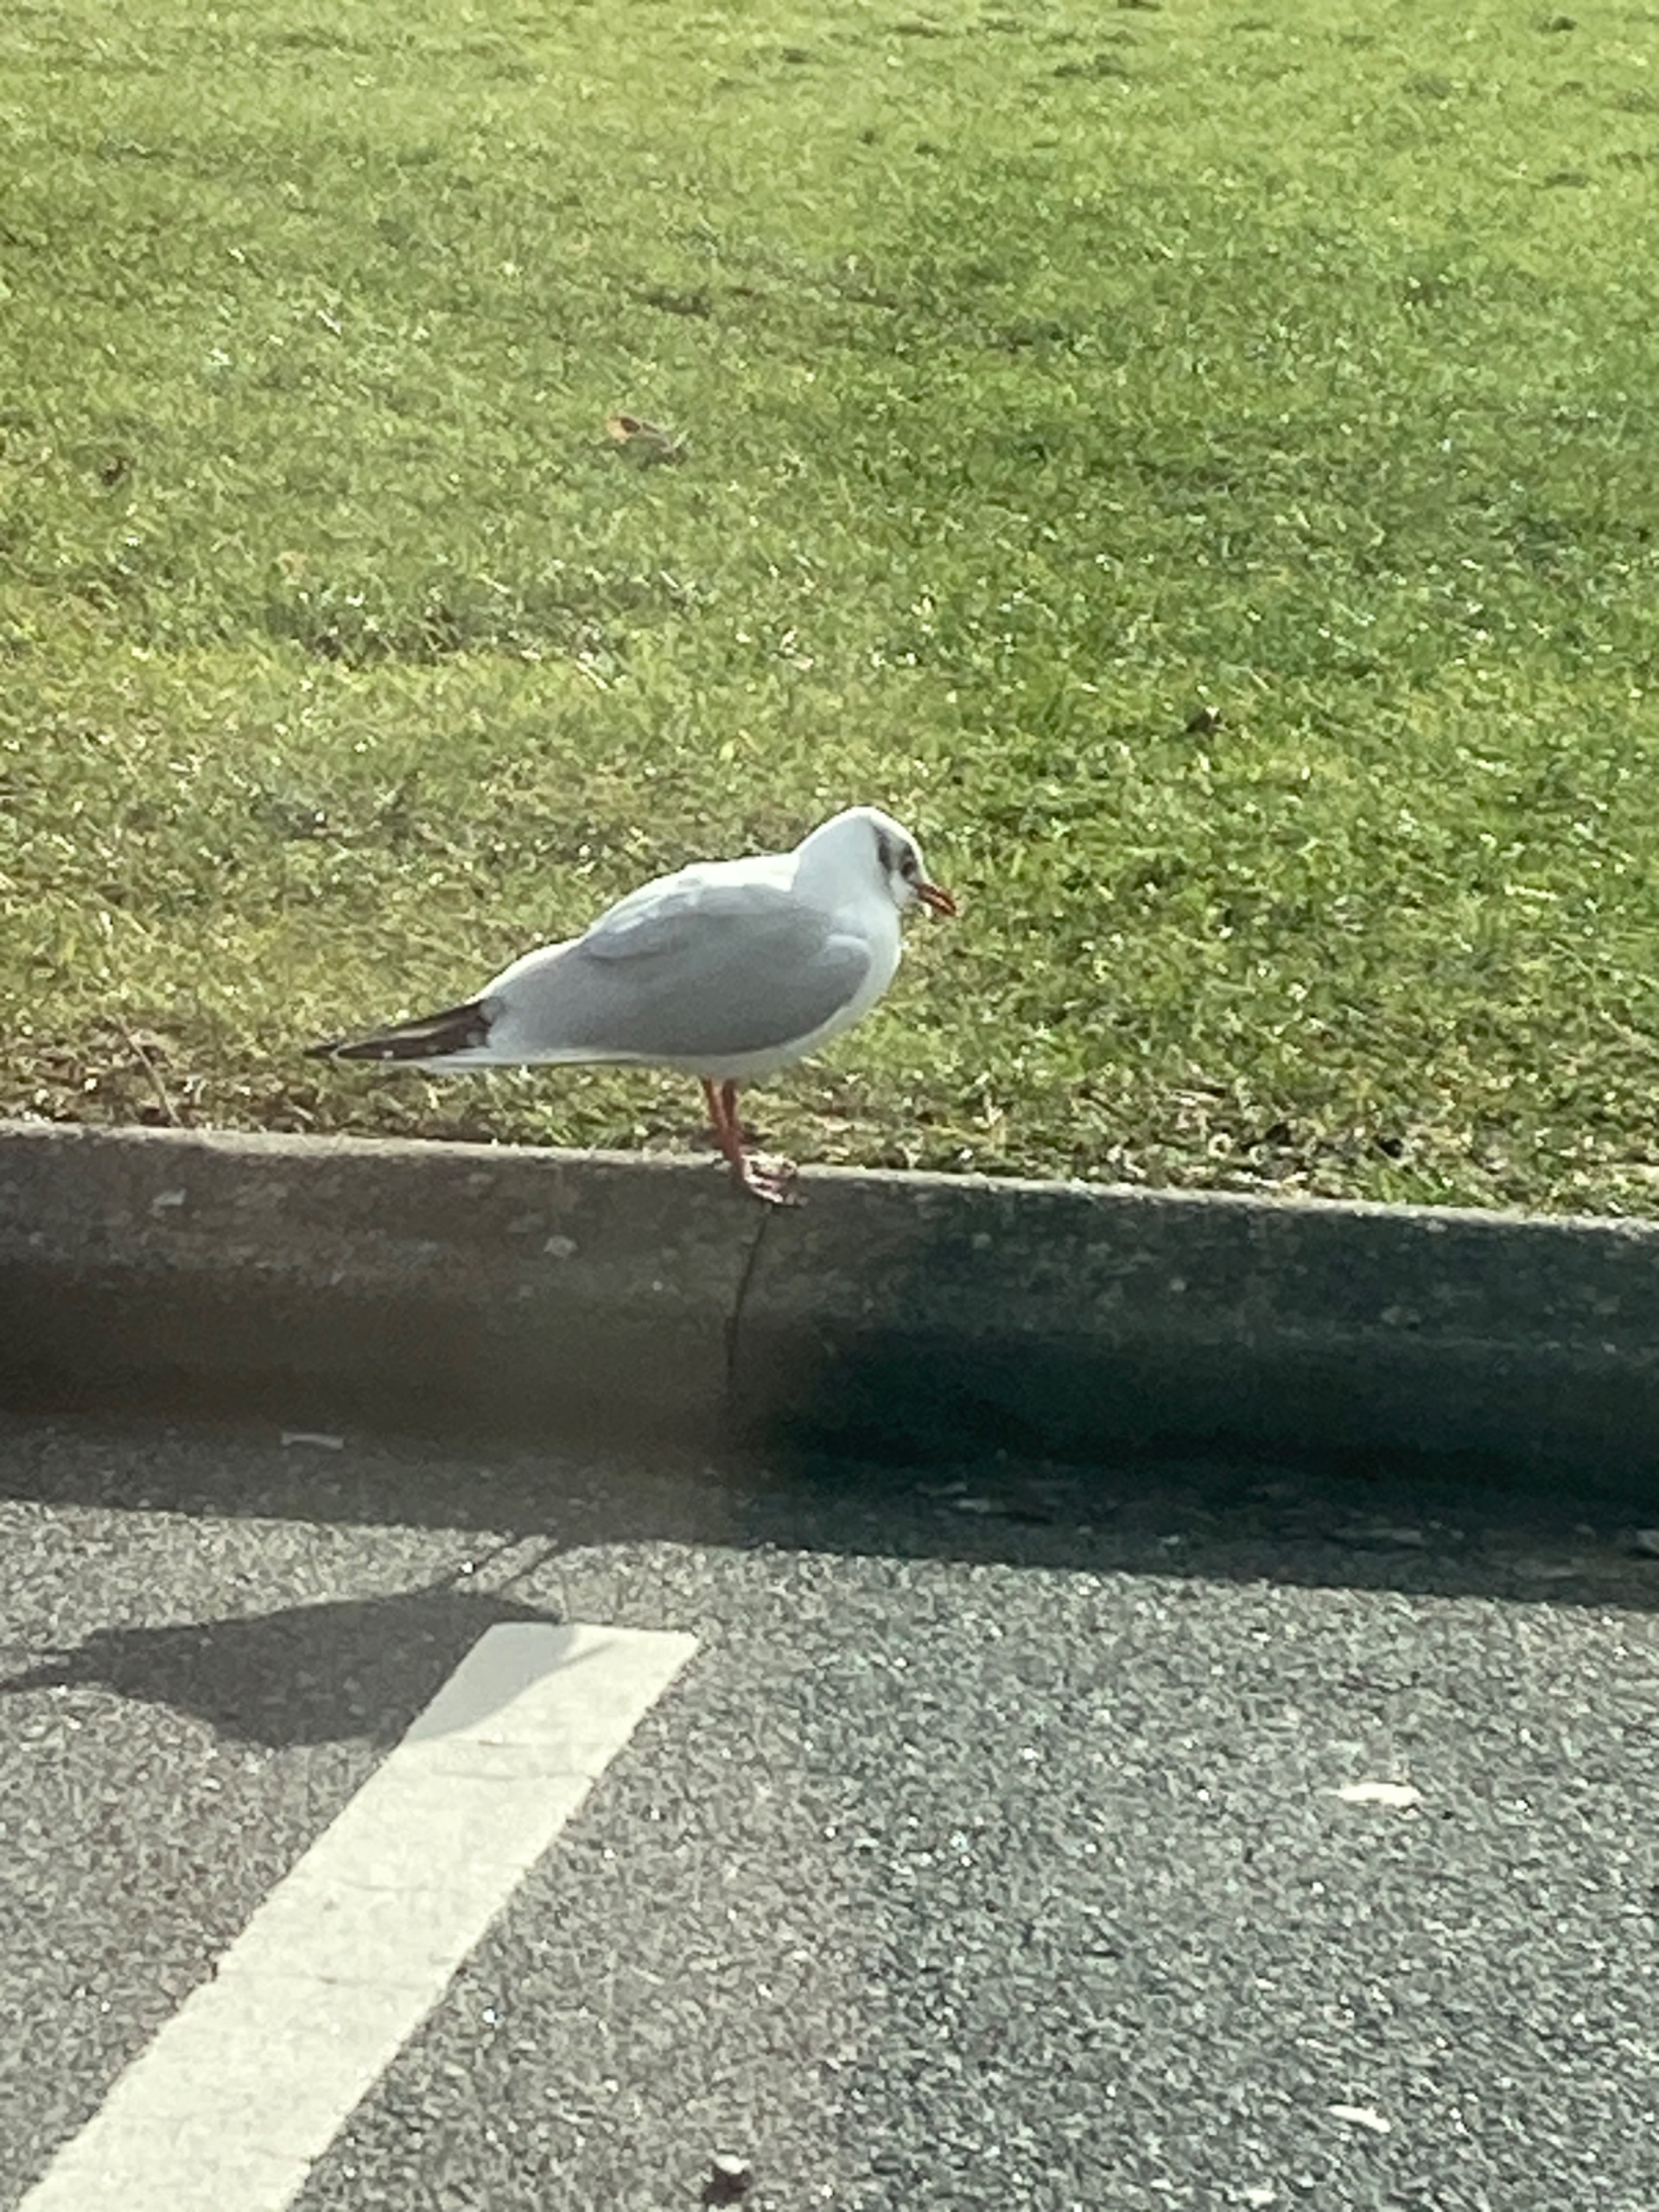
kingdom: Animalia
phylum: Chordata
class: Aves
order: Charadriiformes
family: Laridae
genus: Chroicocephalus
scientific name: Chroicocephalus ridibundus
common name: Hættemåge
